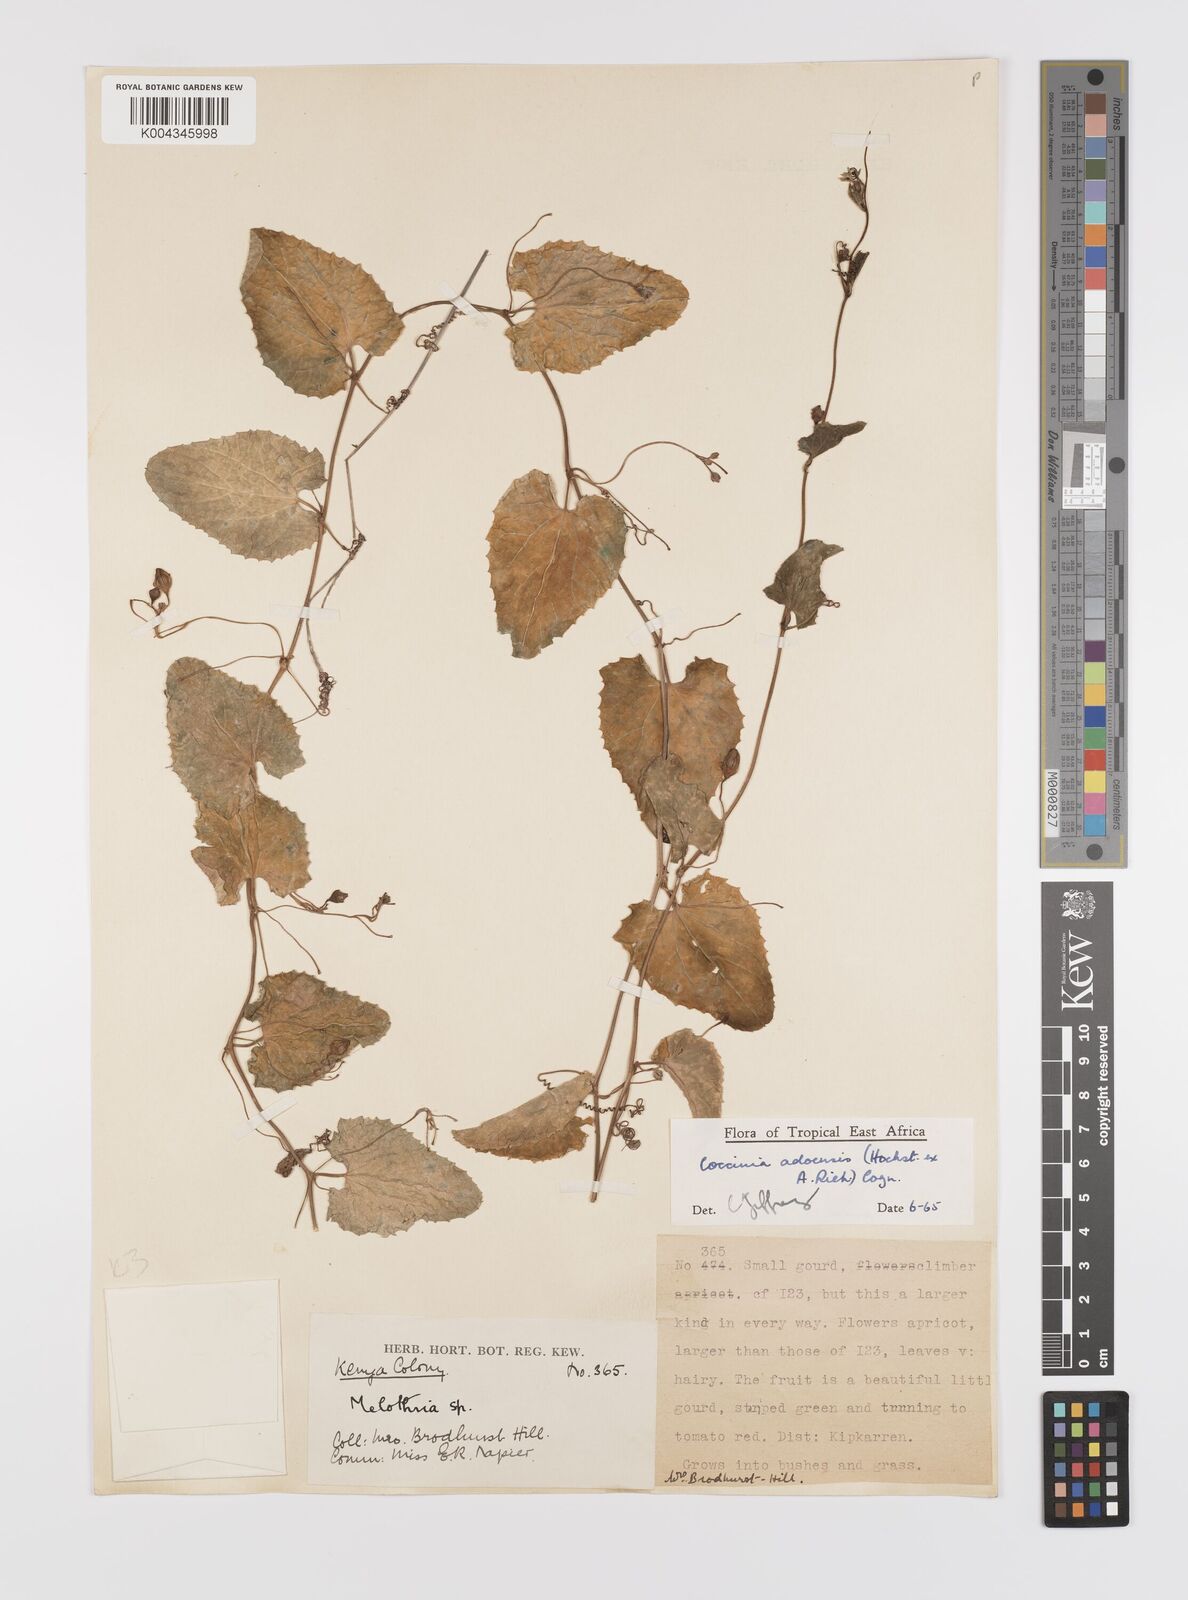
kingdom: Plantae
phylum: Tracheophyta
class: Magnoliopsida
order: Cucurbitales
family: Cucurbitaceae
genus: Coccinia
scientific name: Coccinia adoensis
